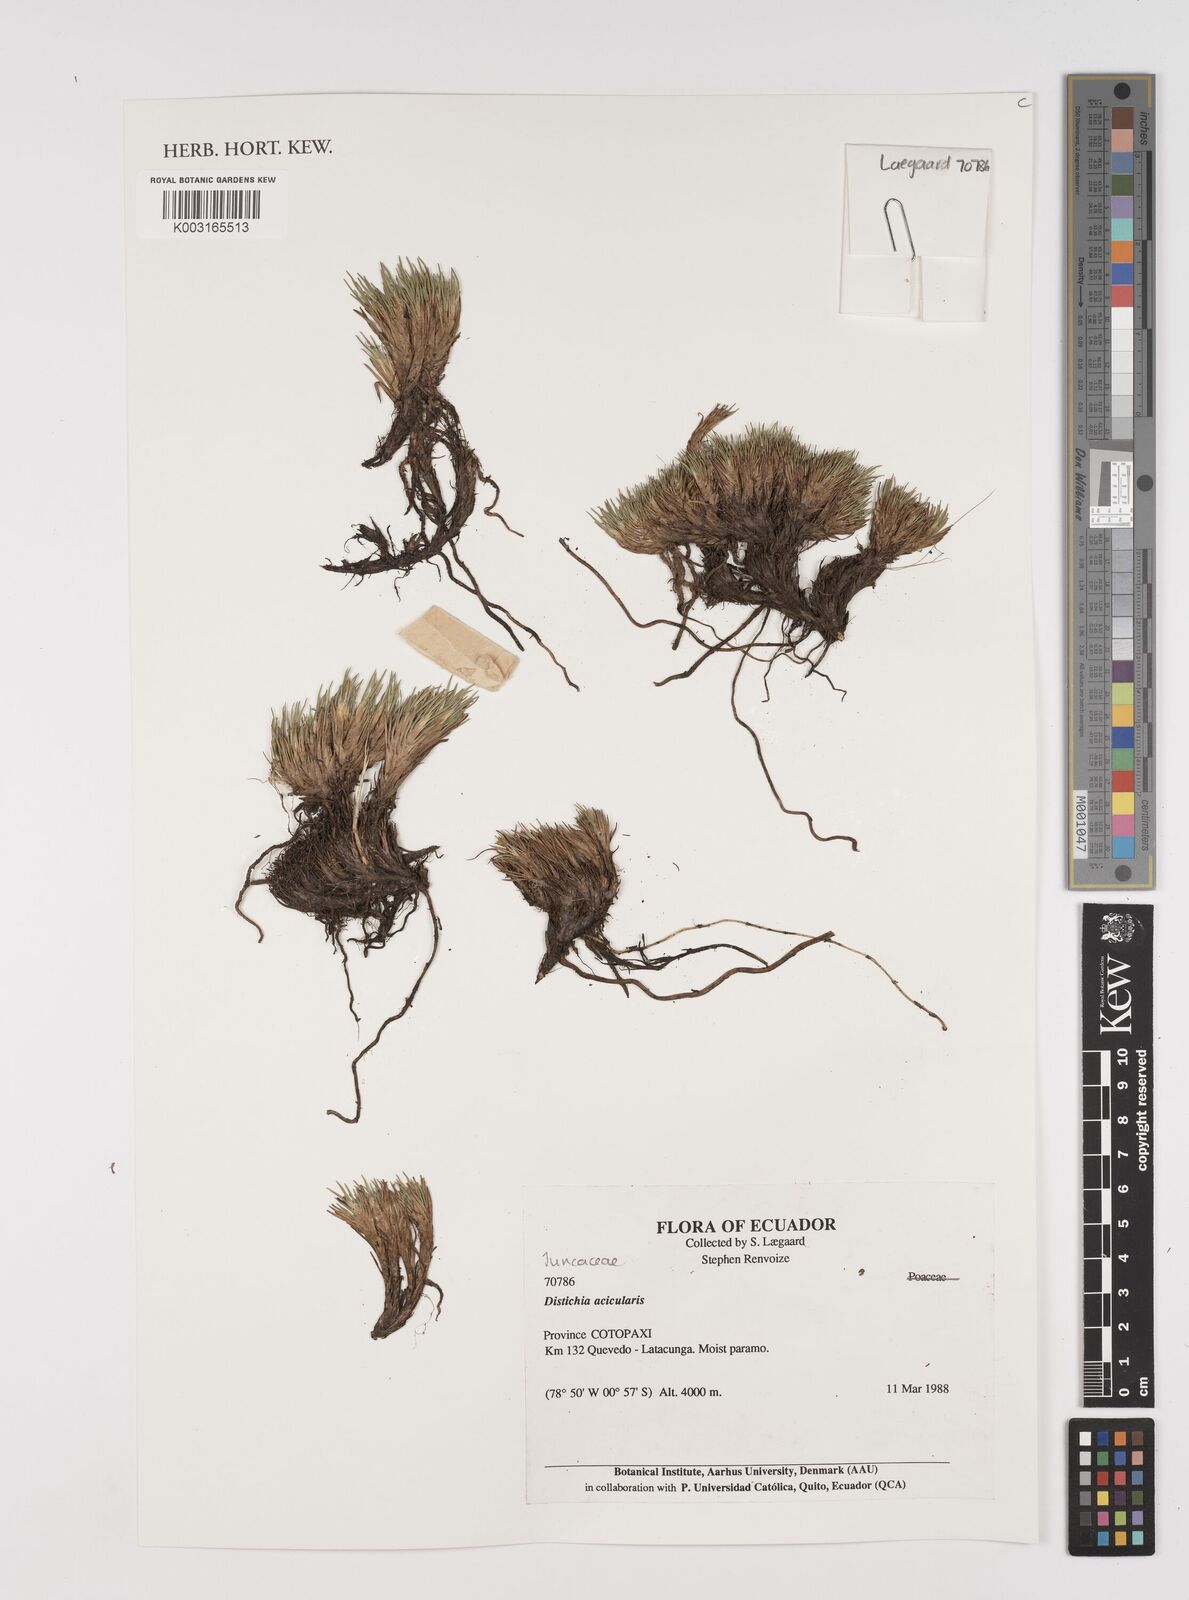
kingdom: Plantae
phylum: Tracheophyta
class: Liliopsida
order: Poales
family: Juncaceae
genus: Distichia
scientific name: Distichia acicularis
